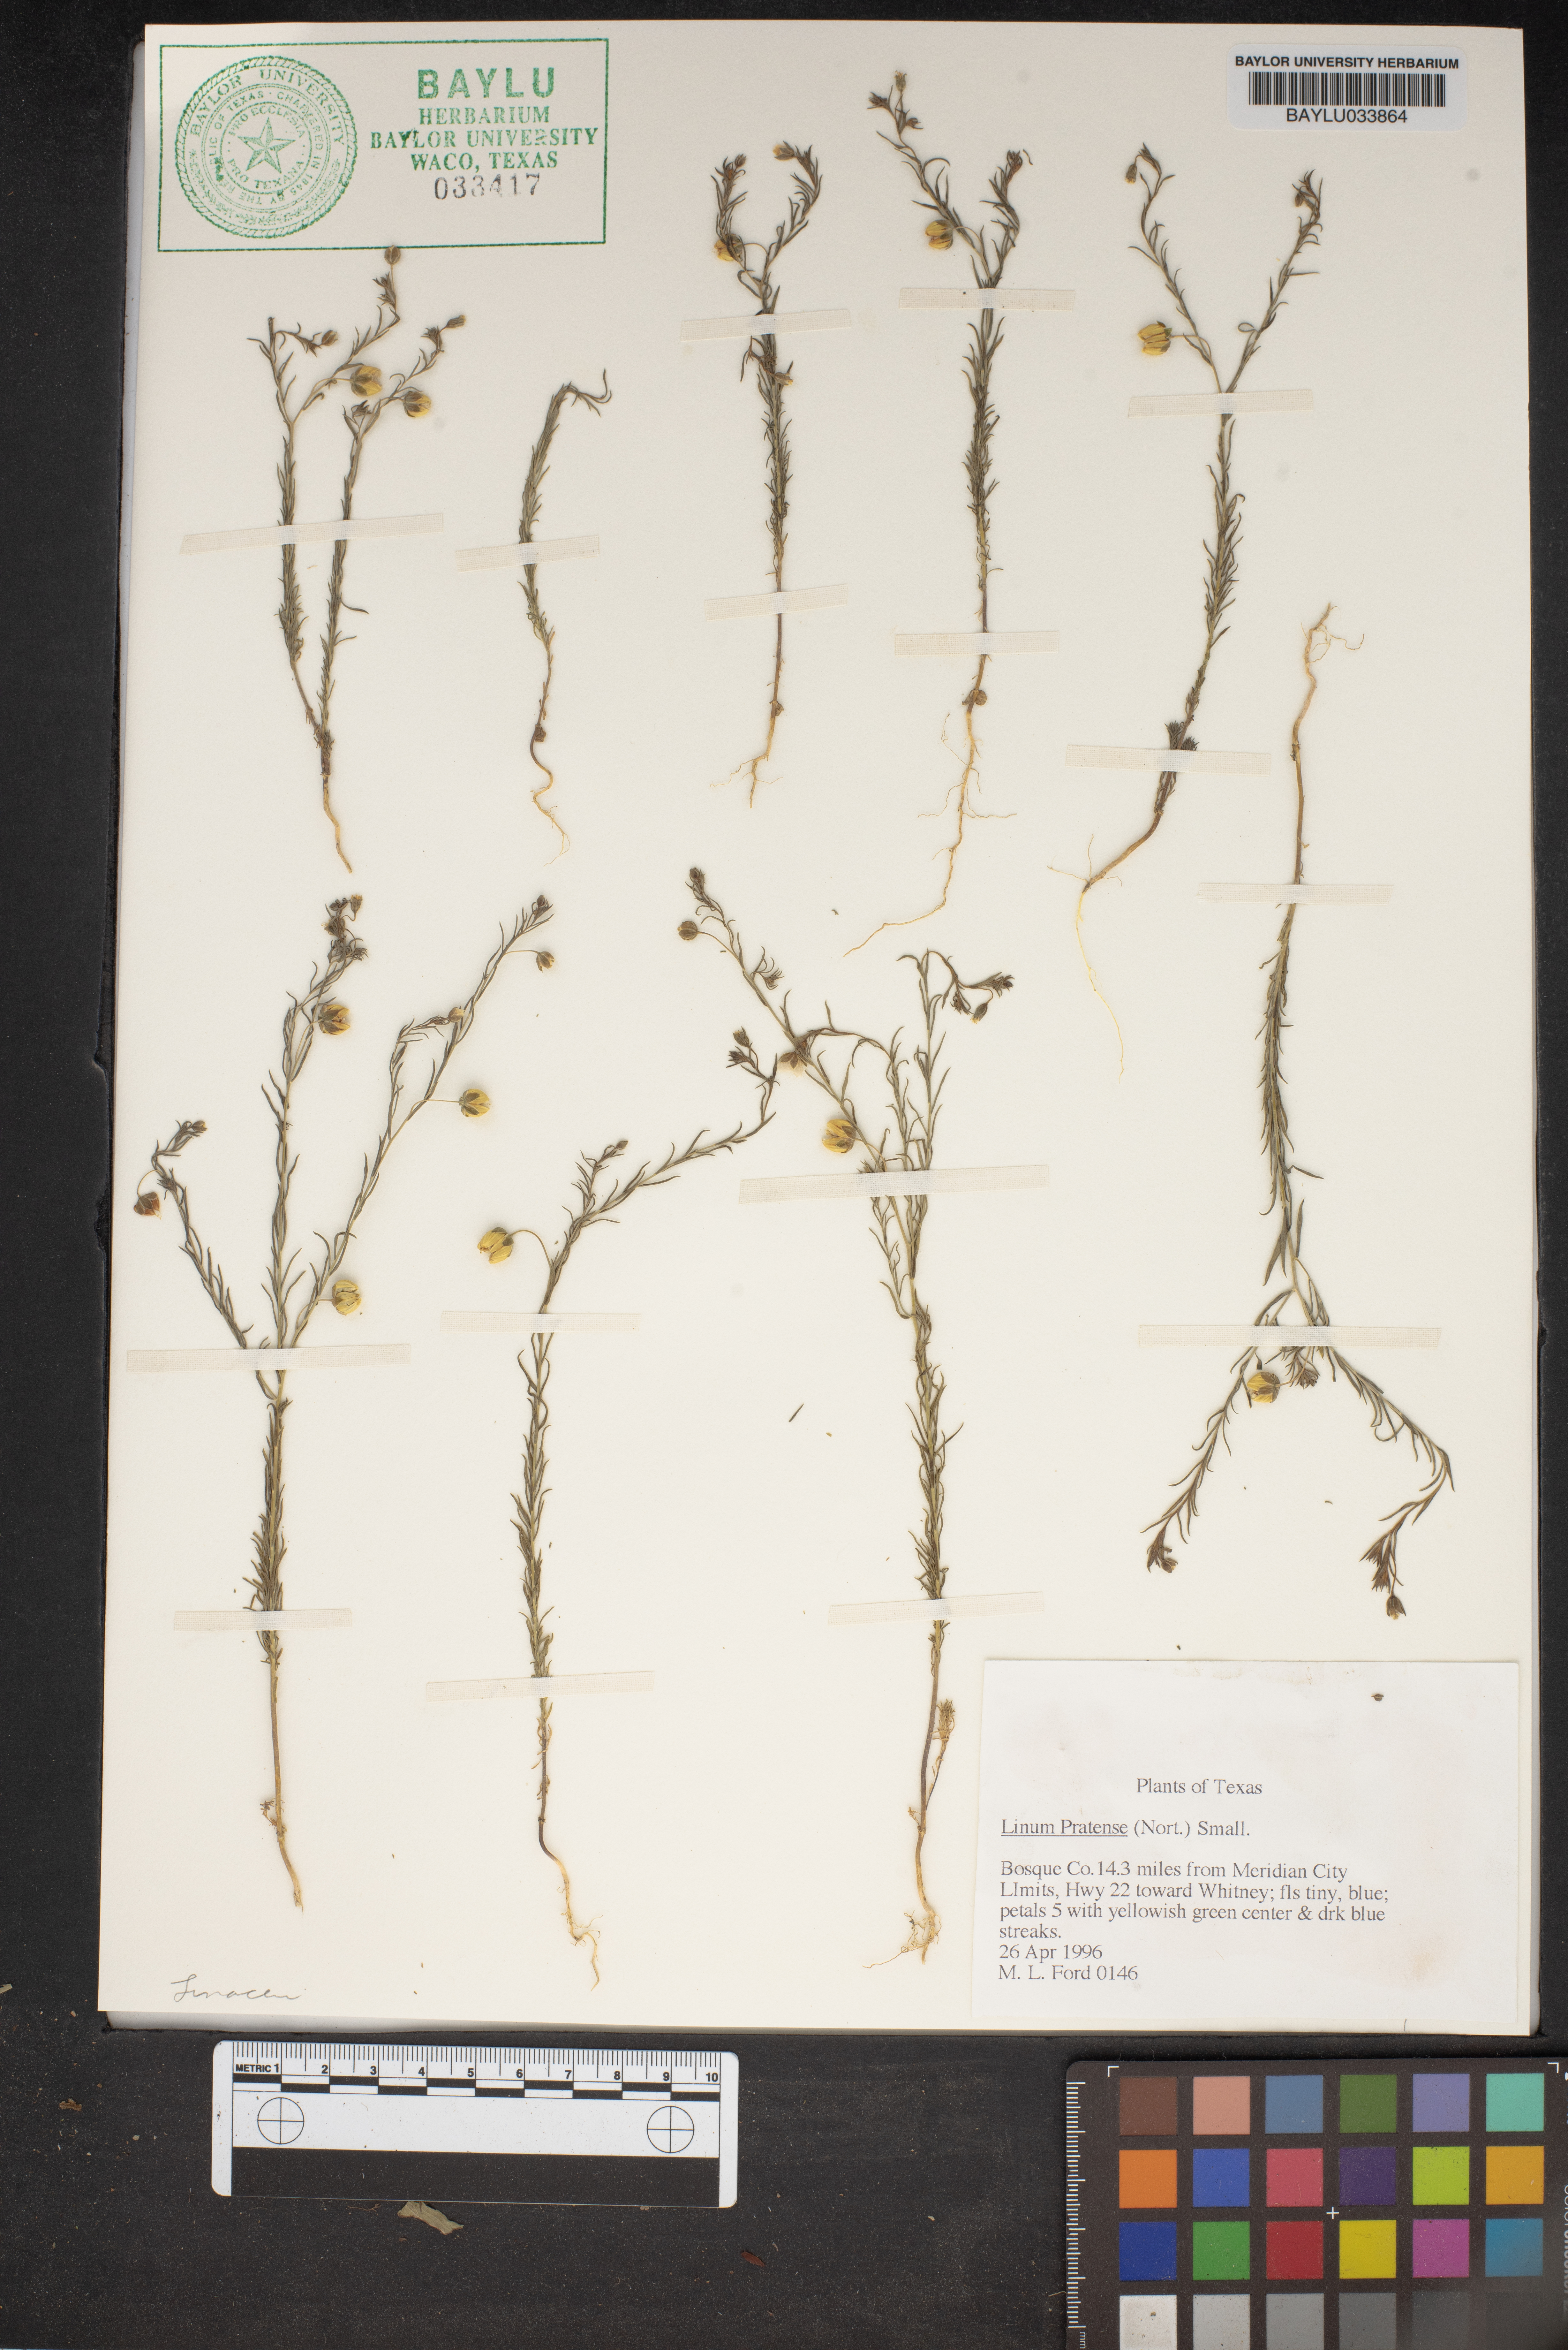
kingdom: Plantae
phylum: Tracheophyta
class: Magnoliopsida
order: Malpighiales
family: Linaceae
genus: Linum
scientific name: Linum pratense
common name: Norton's flax
